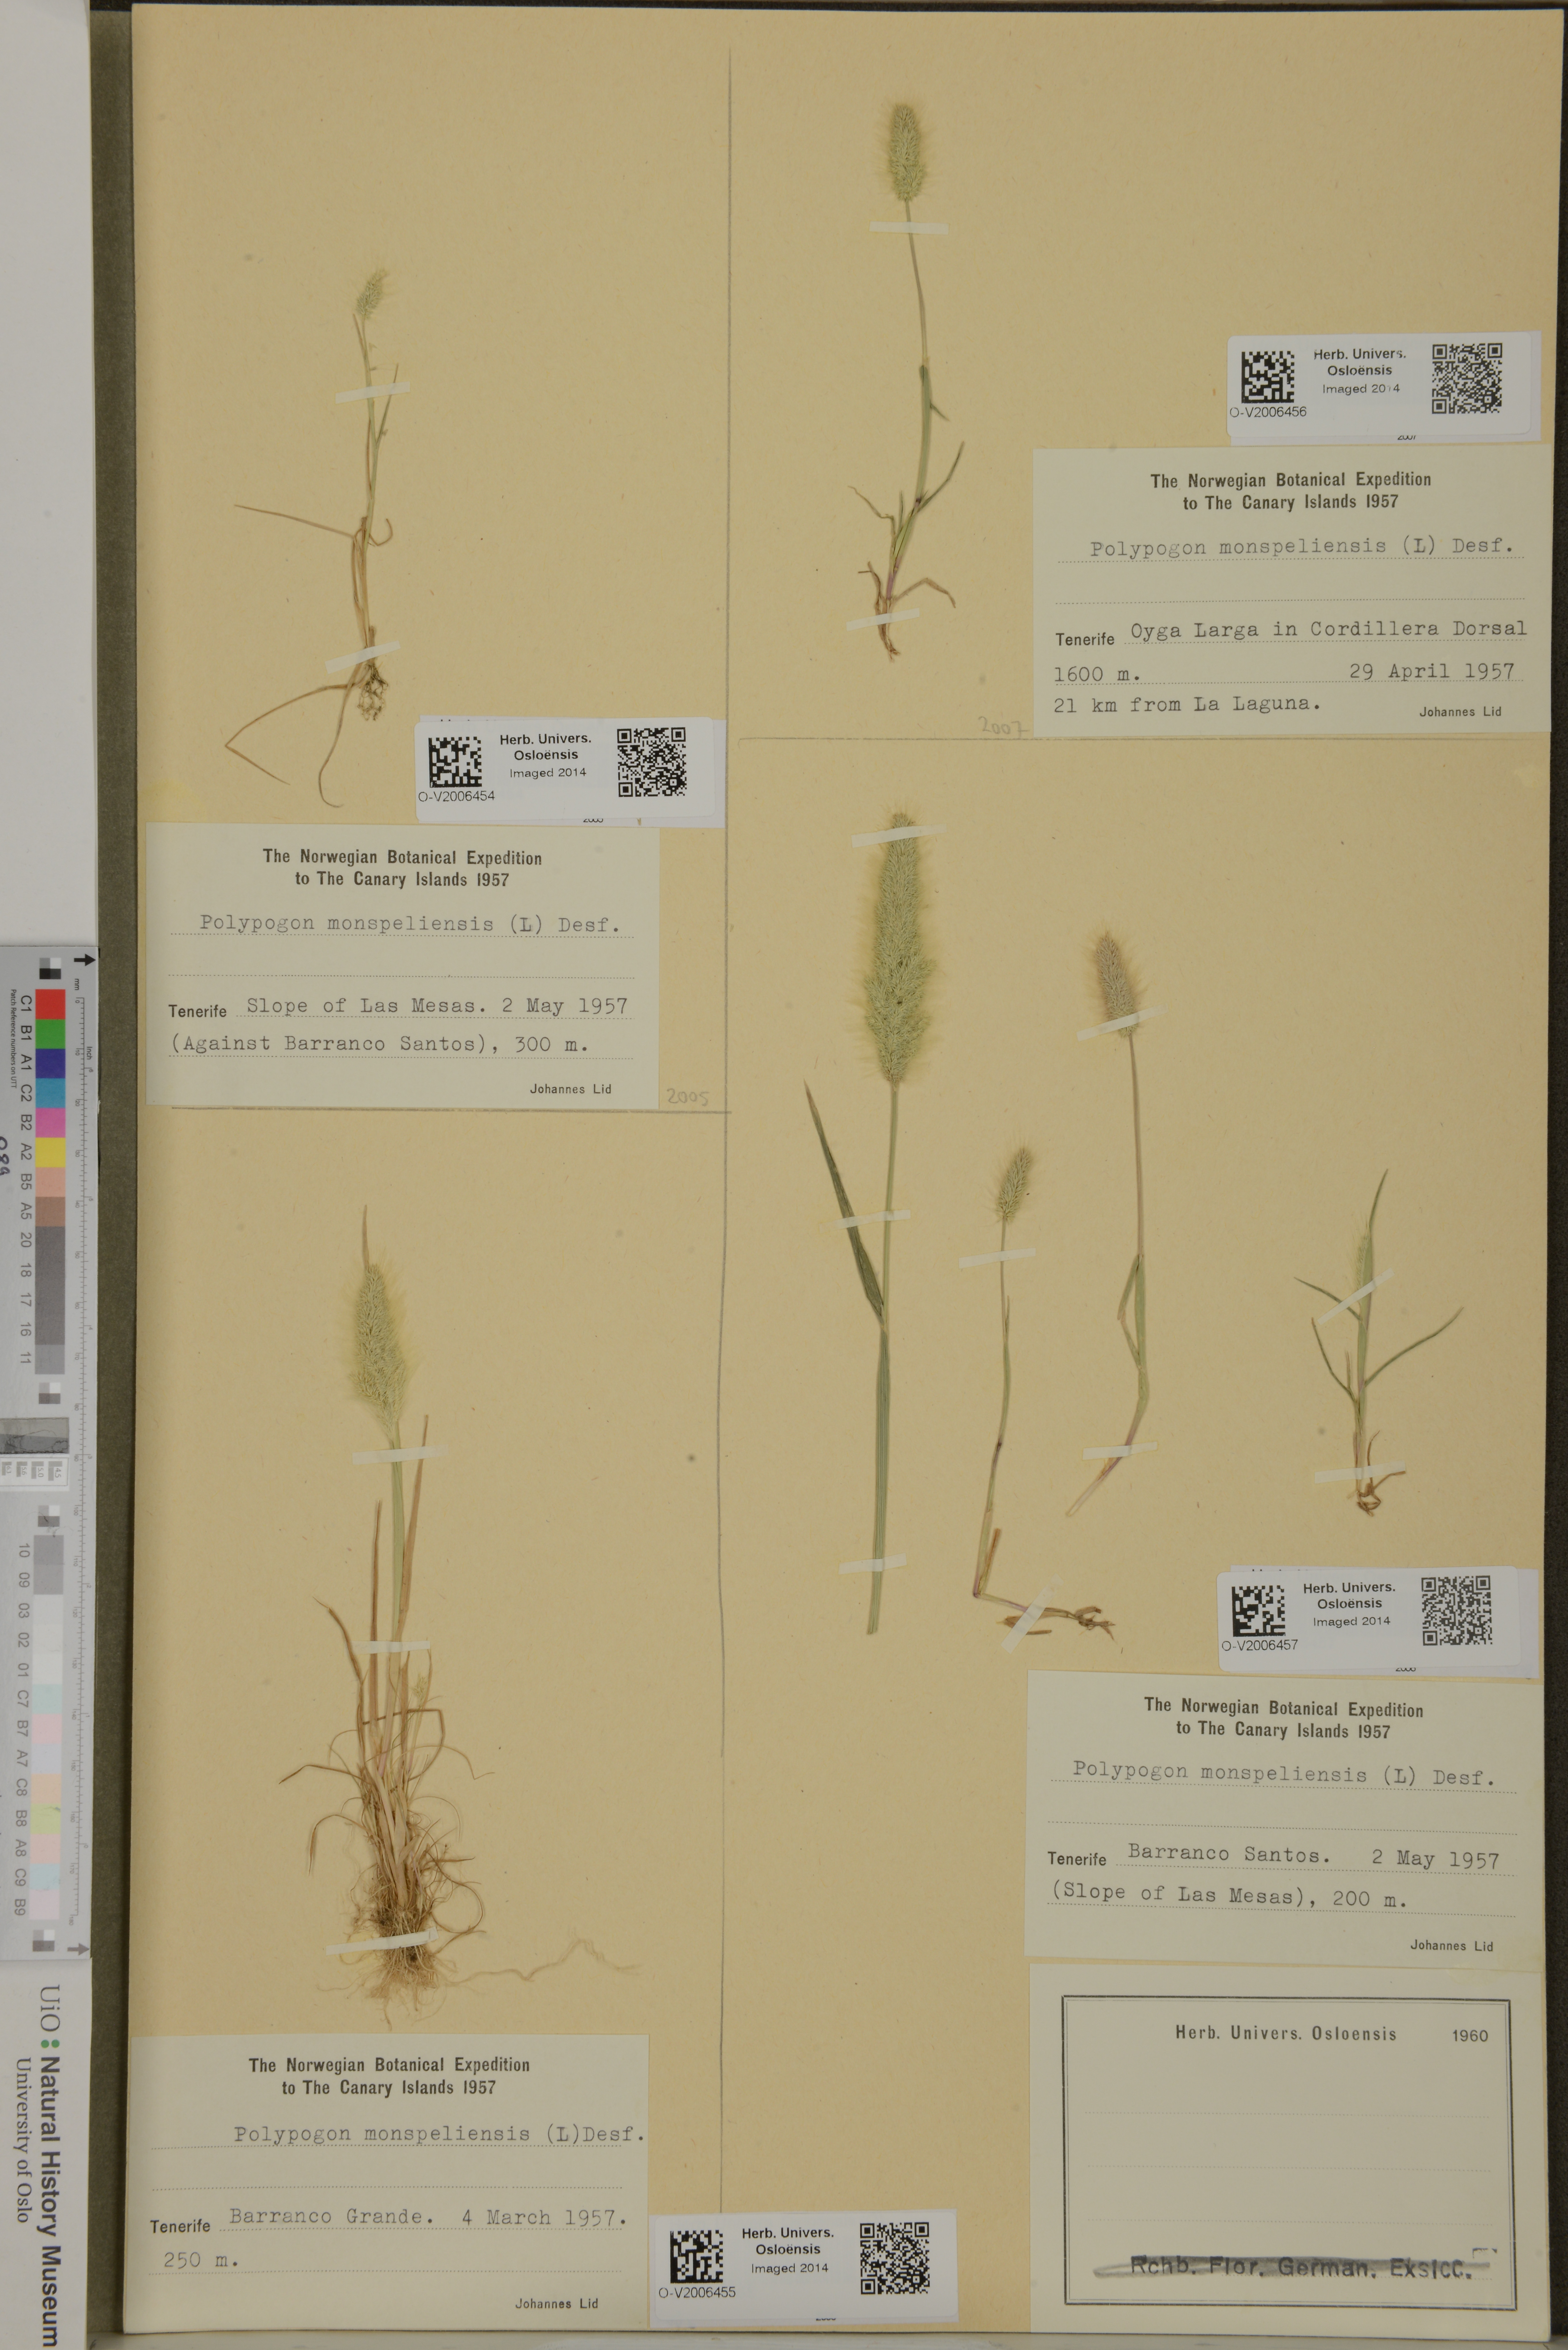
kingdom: Plantae
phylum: Tracheophyta
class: Liliopsida
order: Poales
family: Poaceae
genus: Polypogon
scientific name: Polypogon monspeliensis
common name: Annual rabbitsfoot grass
